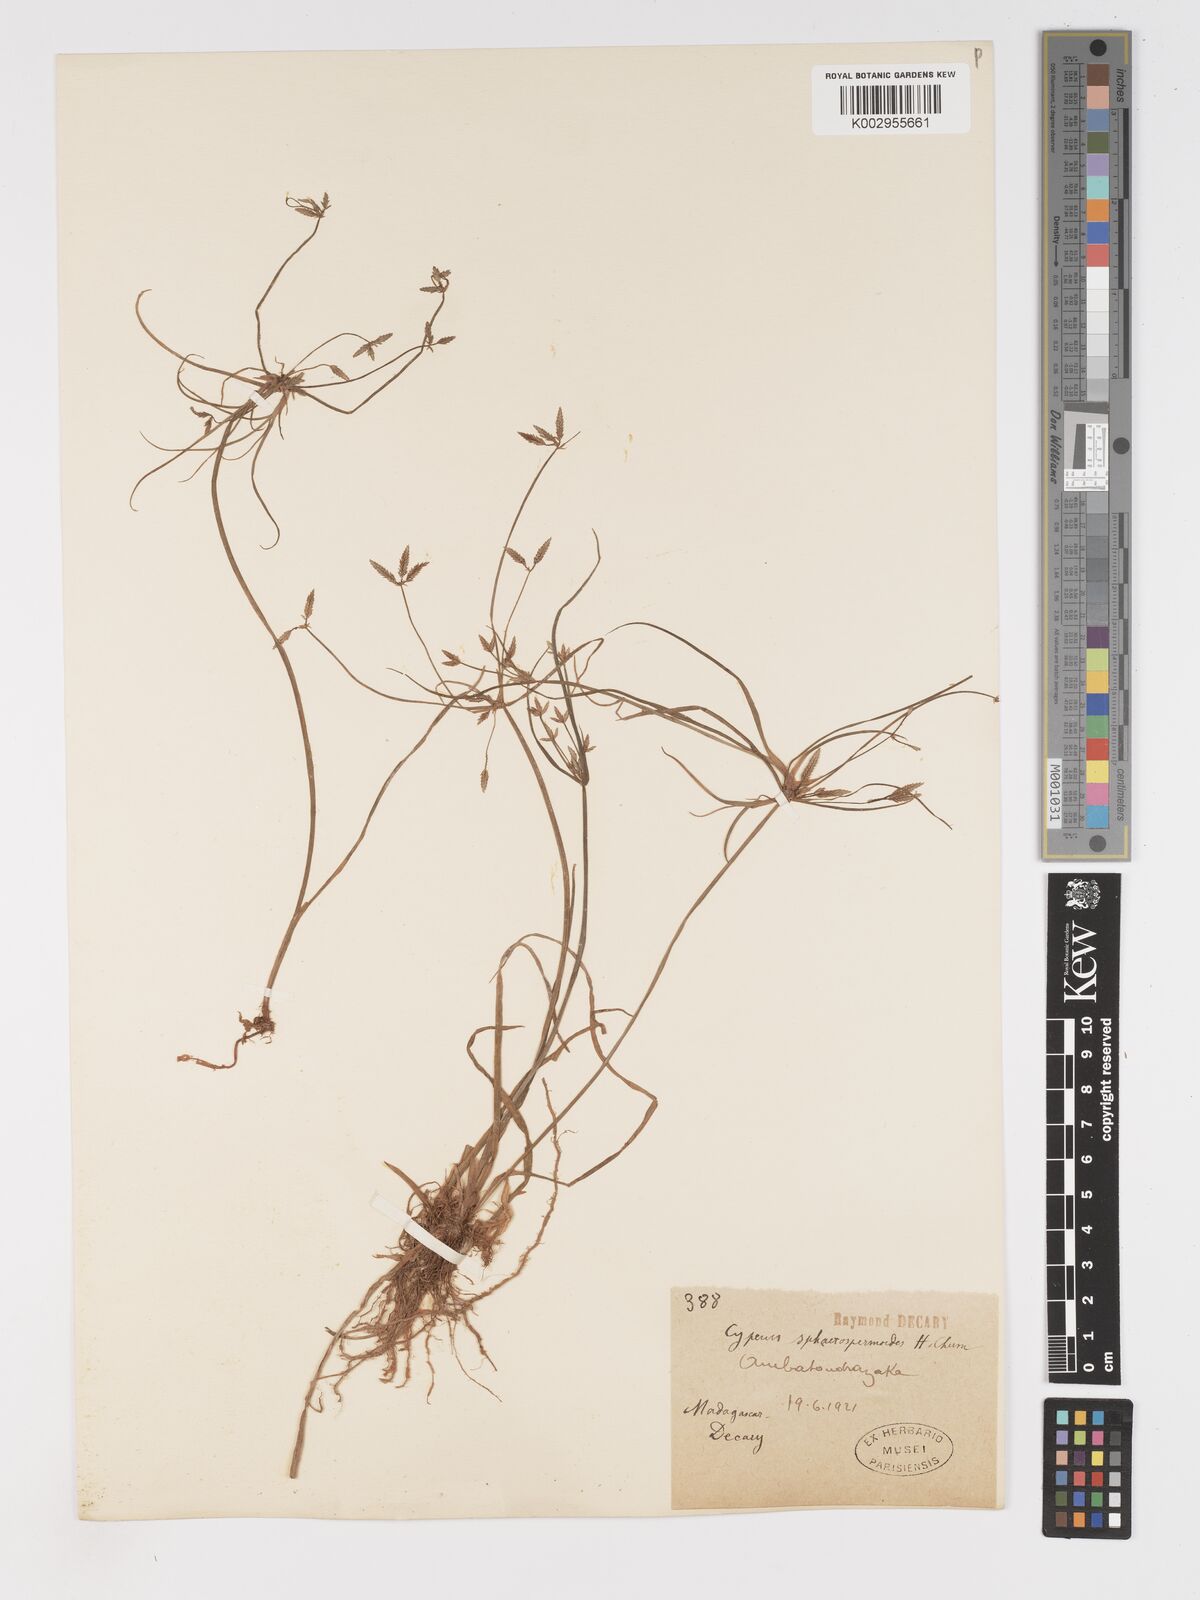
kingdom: Plantae
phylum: Tracheophyta
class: Liliopsida
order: Poales
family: Cyperaceae
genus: Cyperus
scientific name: Cyperus denudatus
